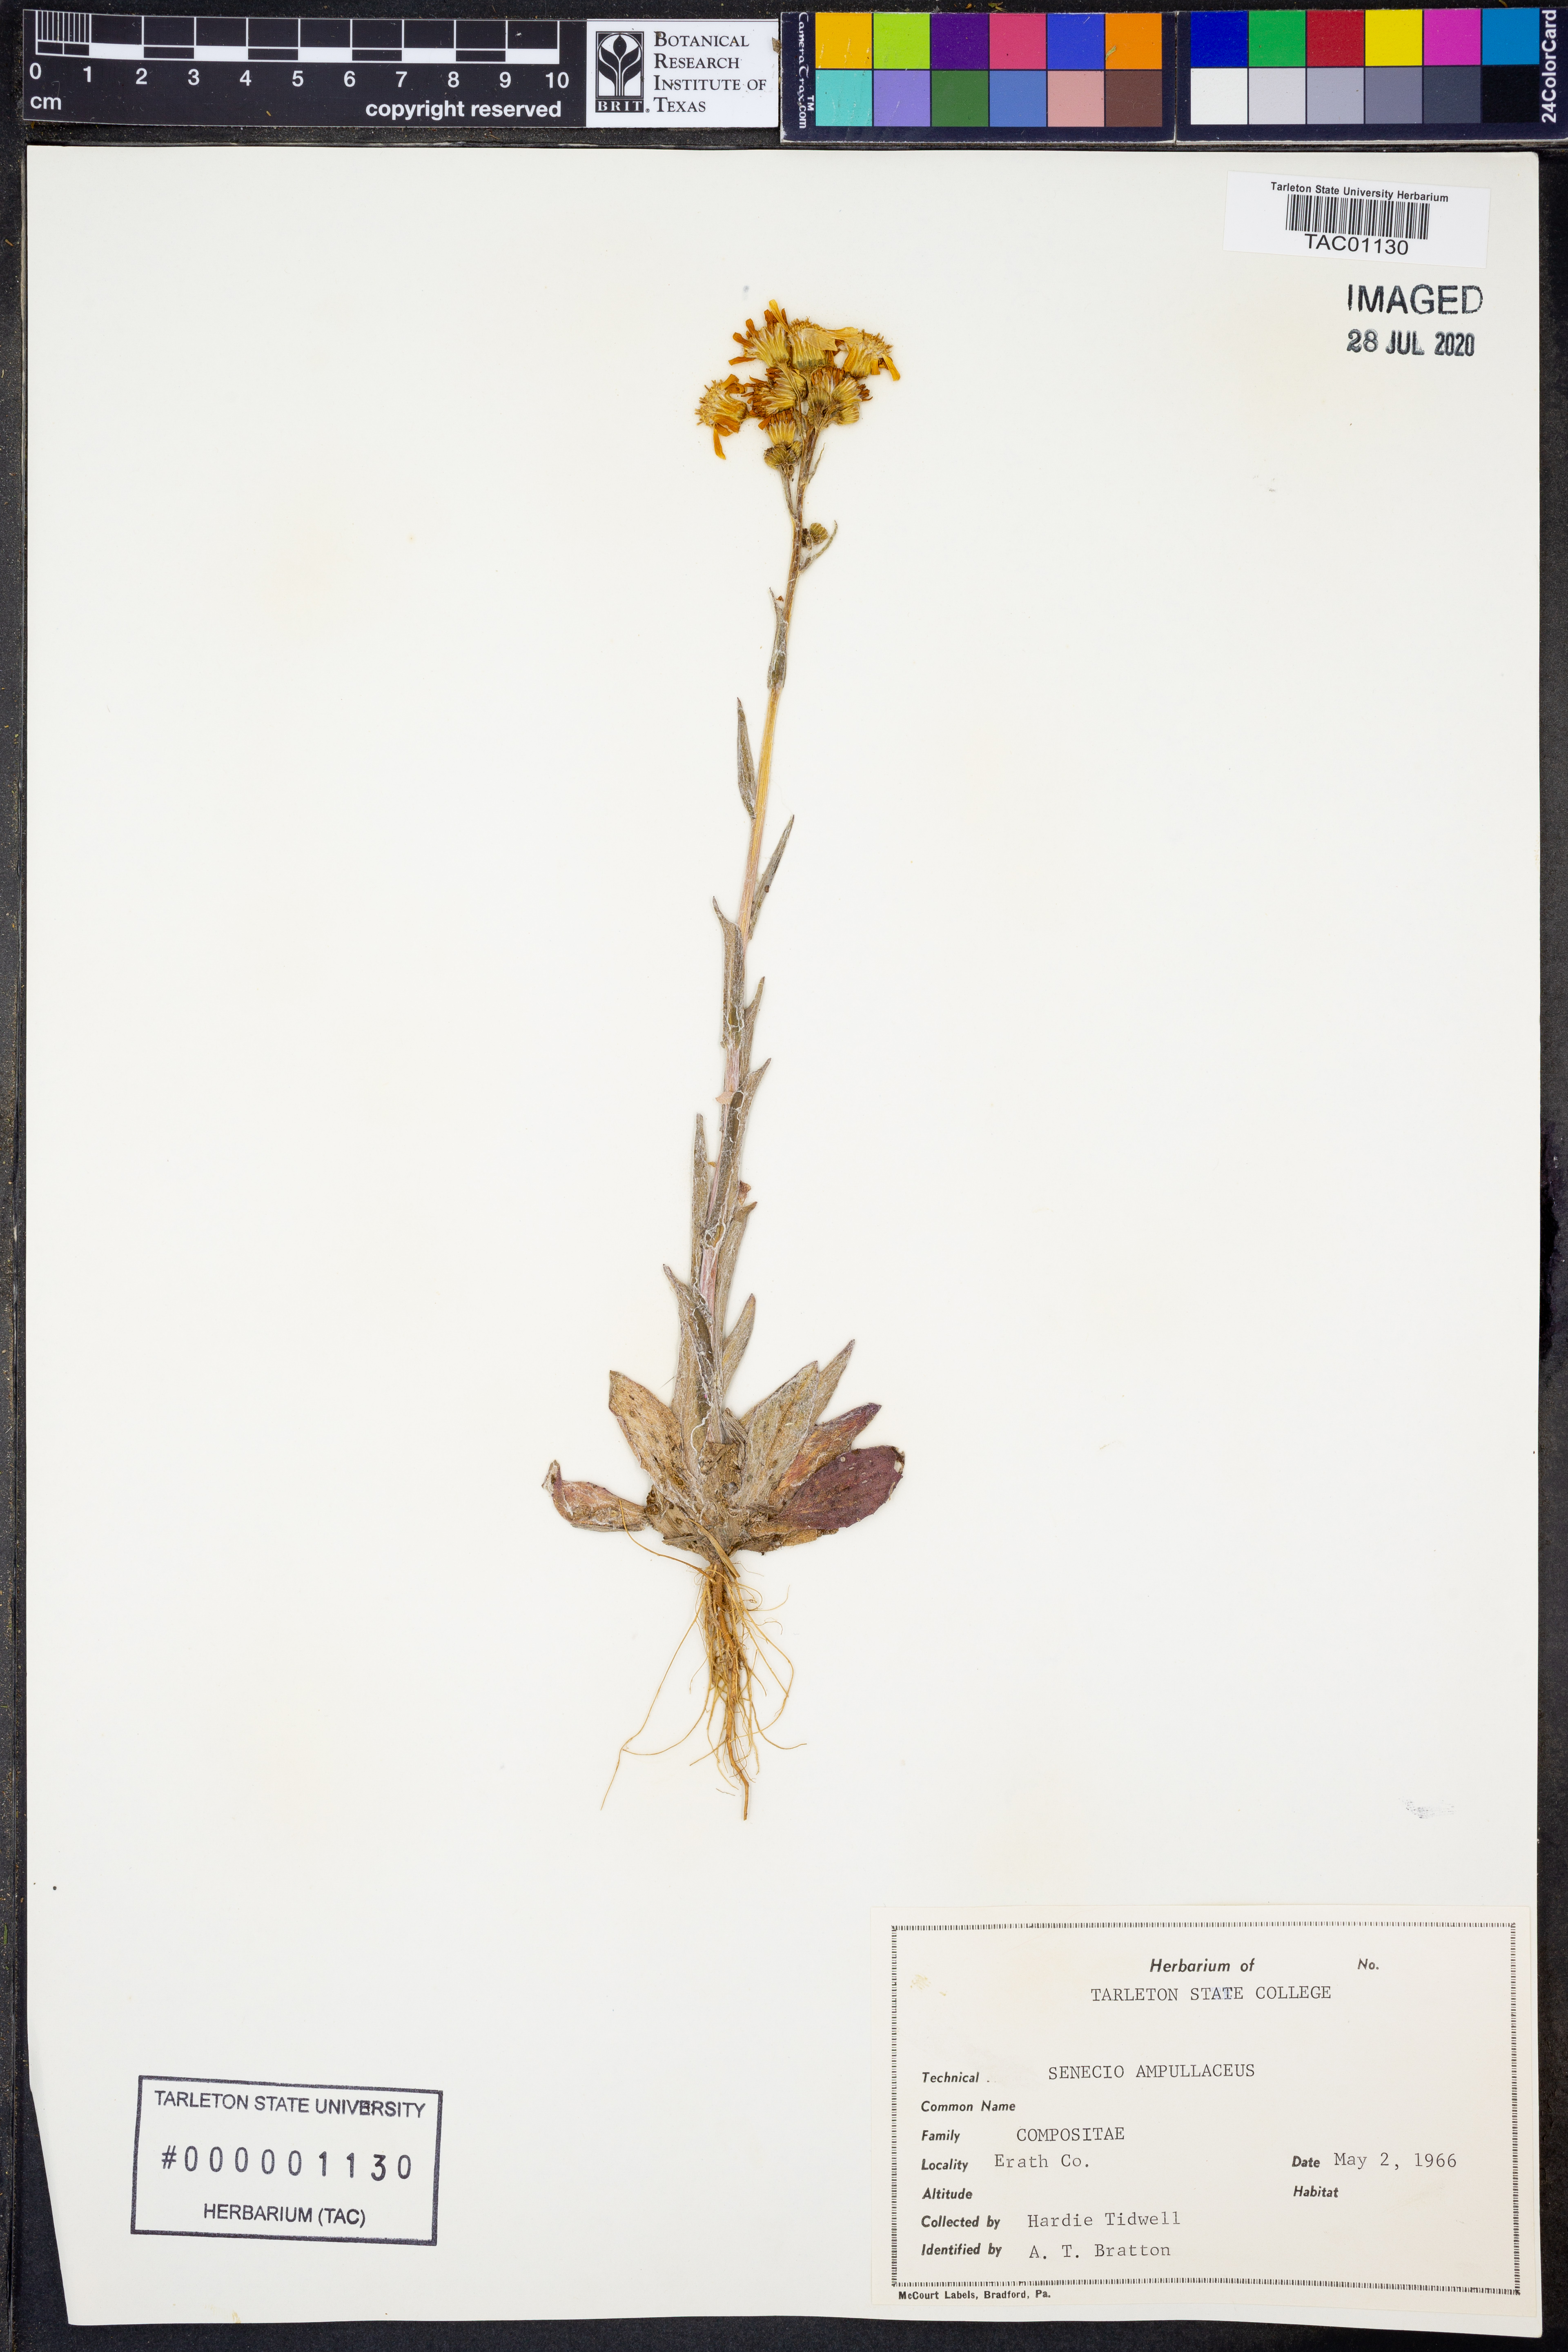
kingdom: Plantae
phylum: Tracheophyta
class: Magnoliopsida
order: Asterales
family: Asteraceae
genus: Senecio
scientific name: Senecio ampullaceus
